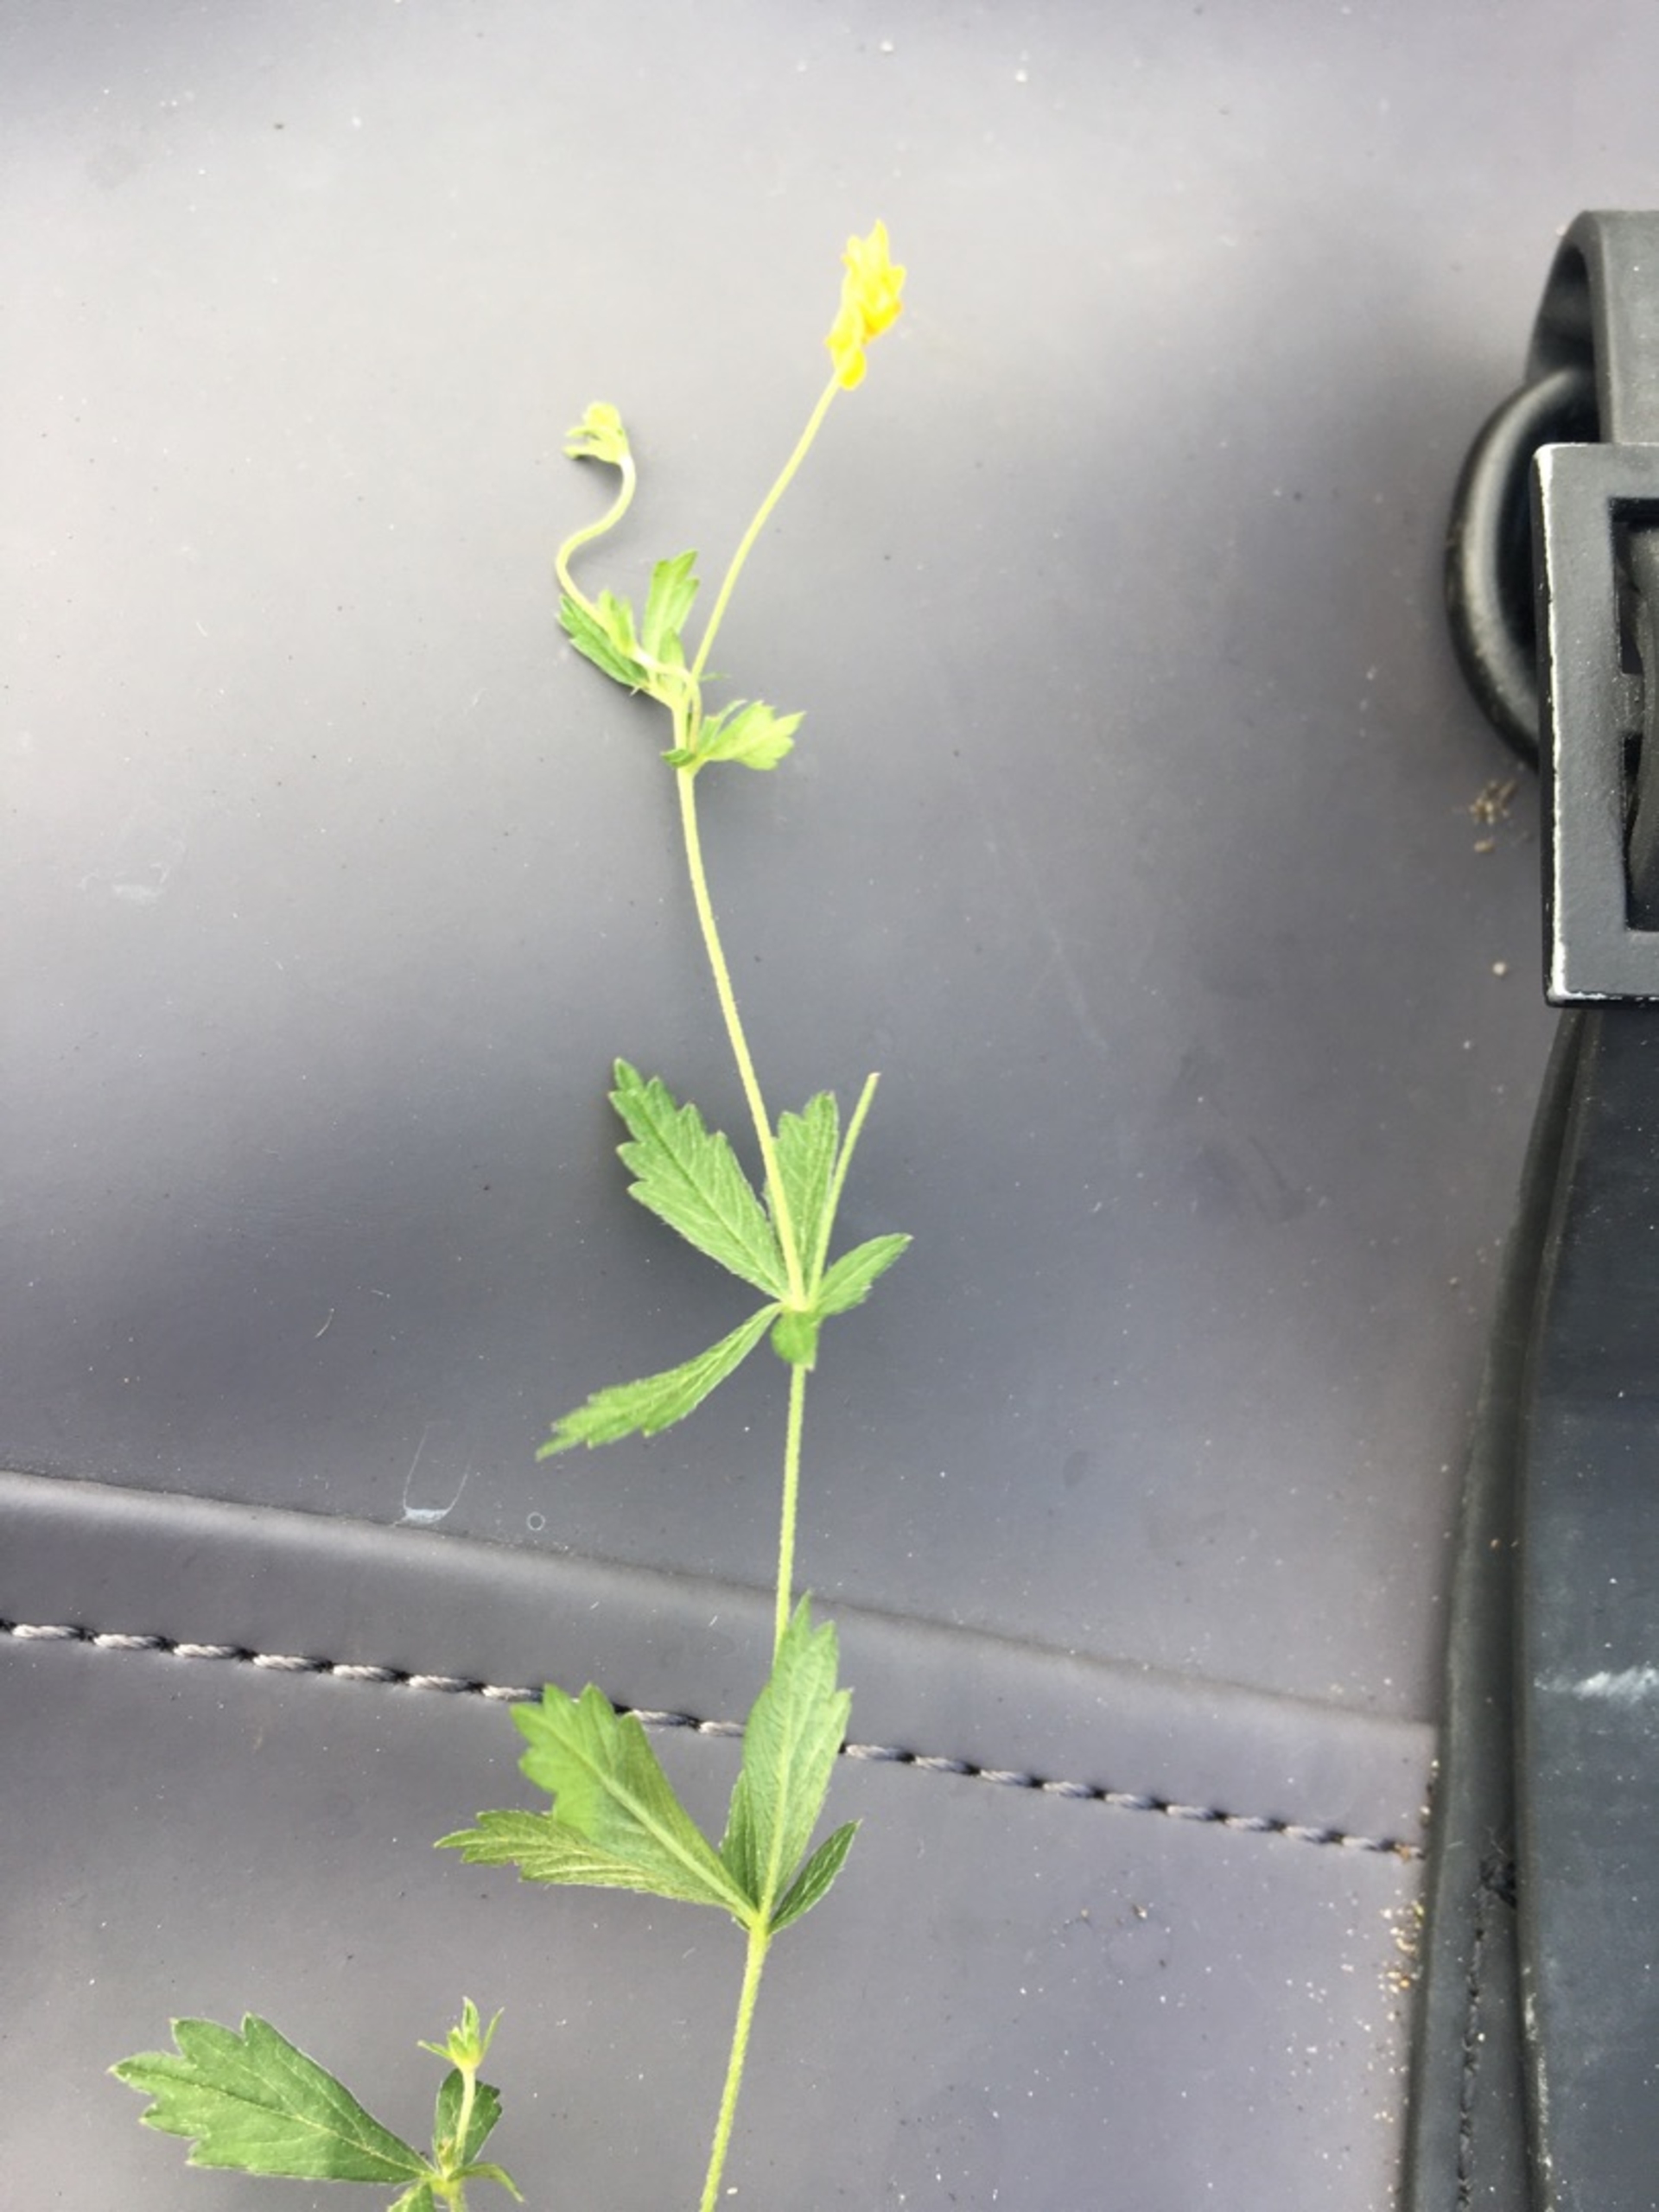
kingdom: Plantae
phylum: Tracheophyta
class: Magnoliopsida
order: Rosales
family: Rosaceae
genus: Potentilla
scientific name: Potentilla erecta
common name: Tormentil
